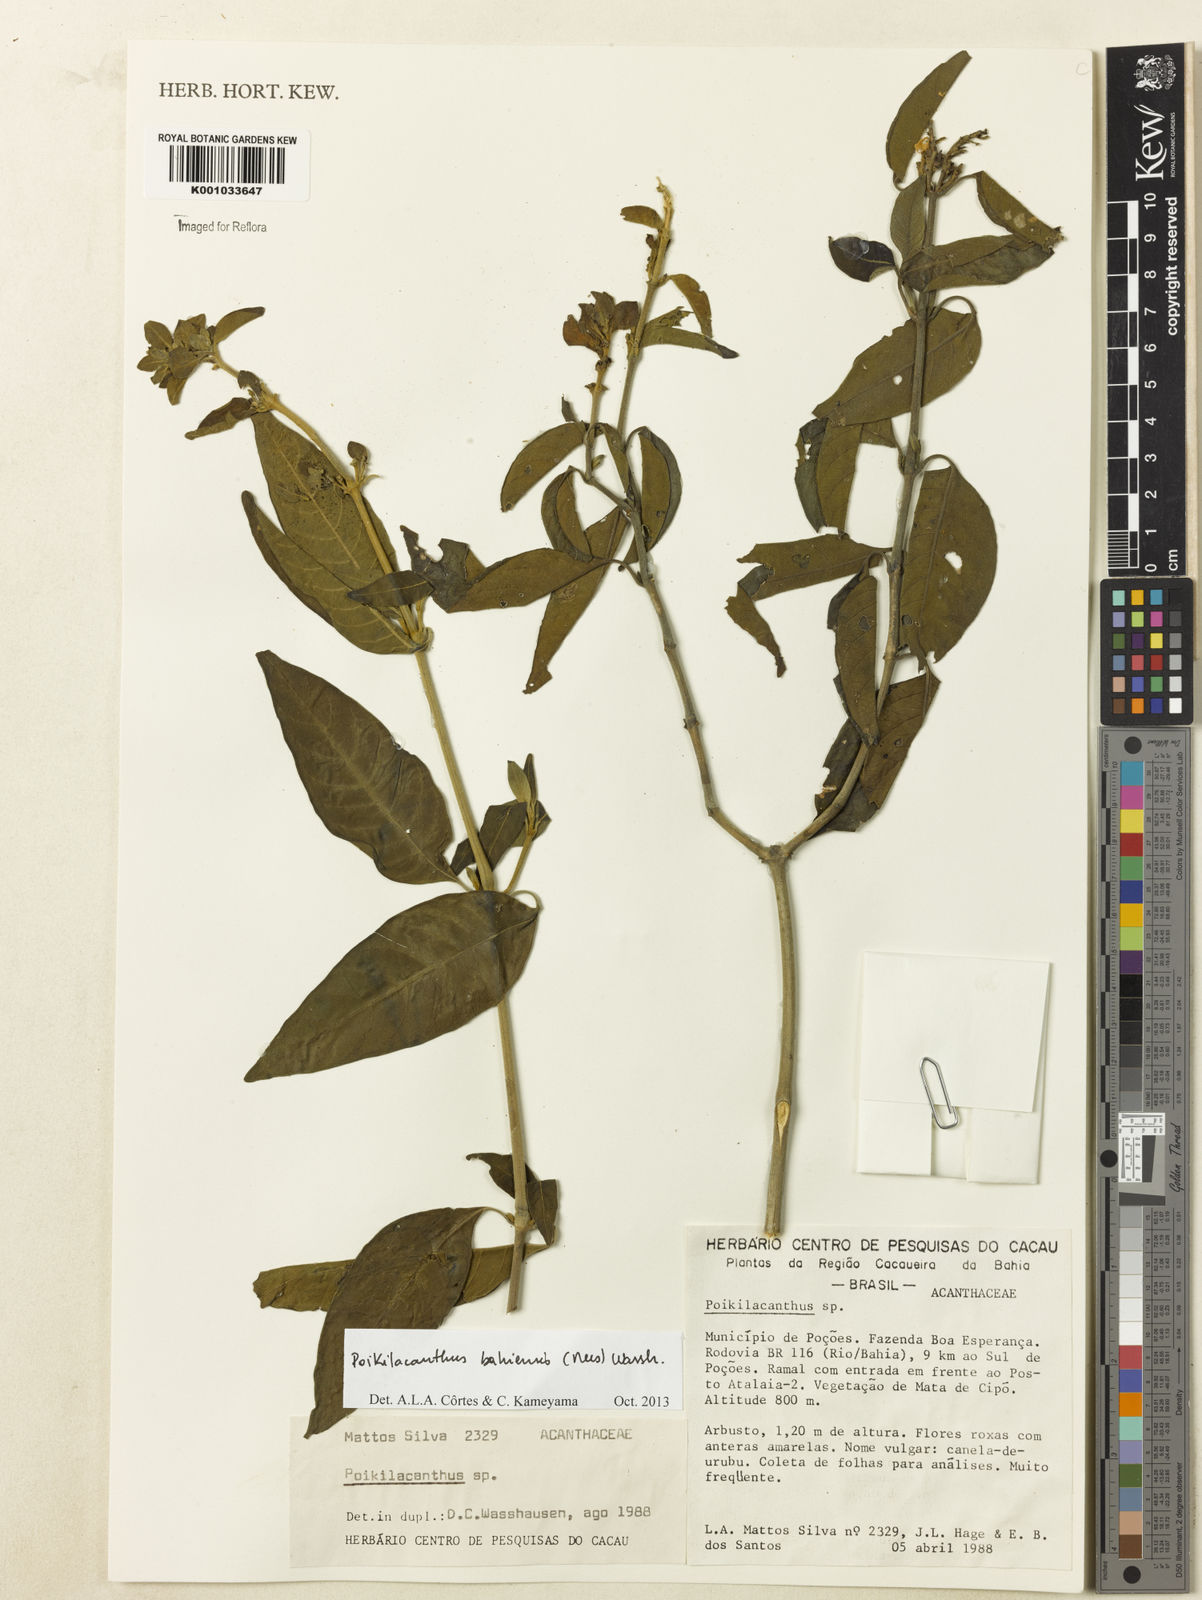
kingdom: Plantae
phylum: Tracheophyta
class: Magnoliopsida
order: Lamiales
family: Acanthaceae
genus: Poikilacanthus
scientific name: Poikilacanthus bahiensis
